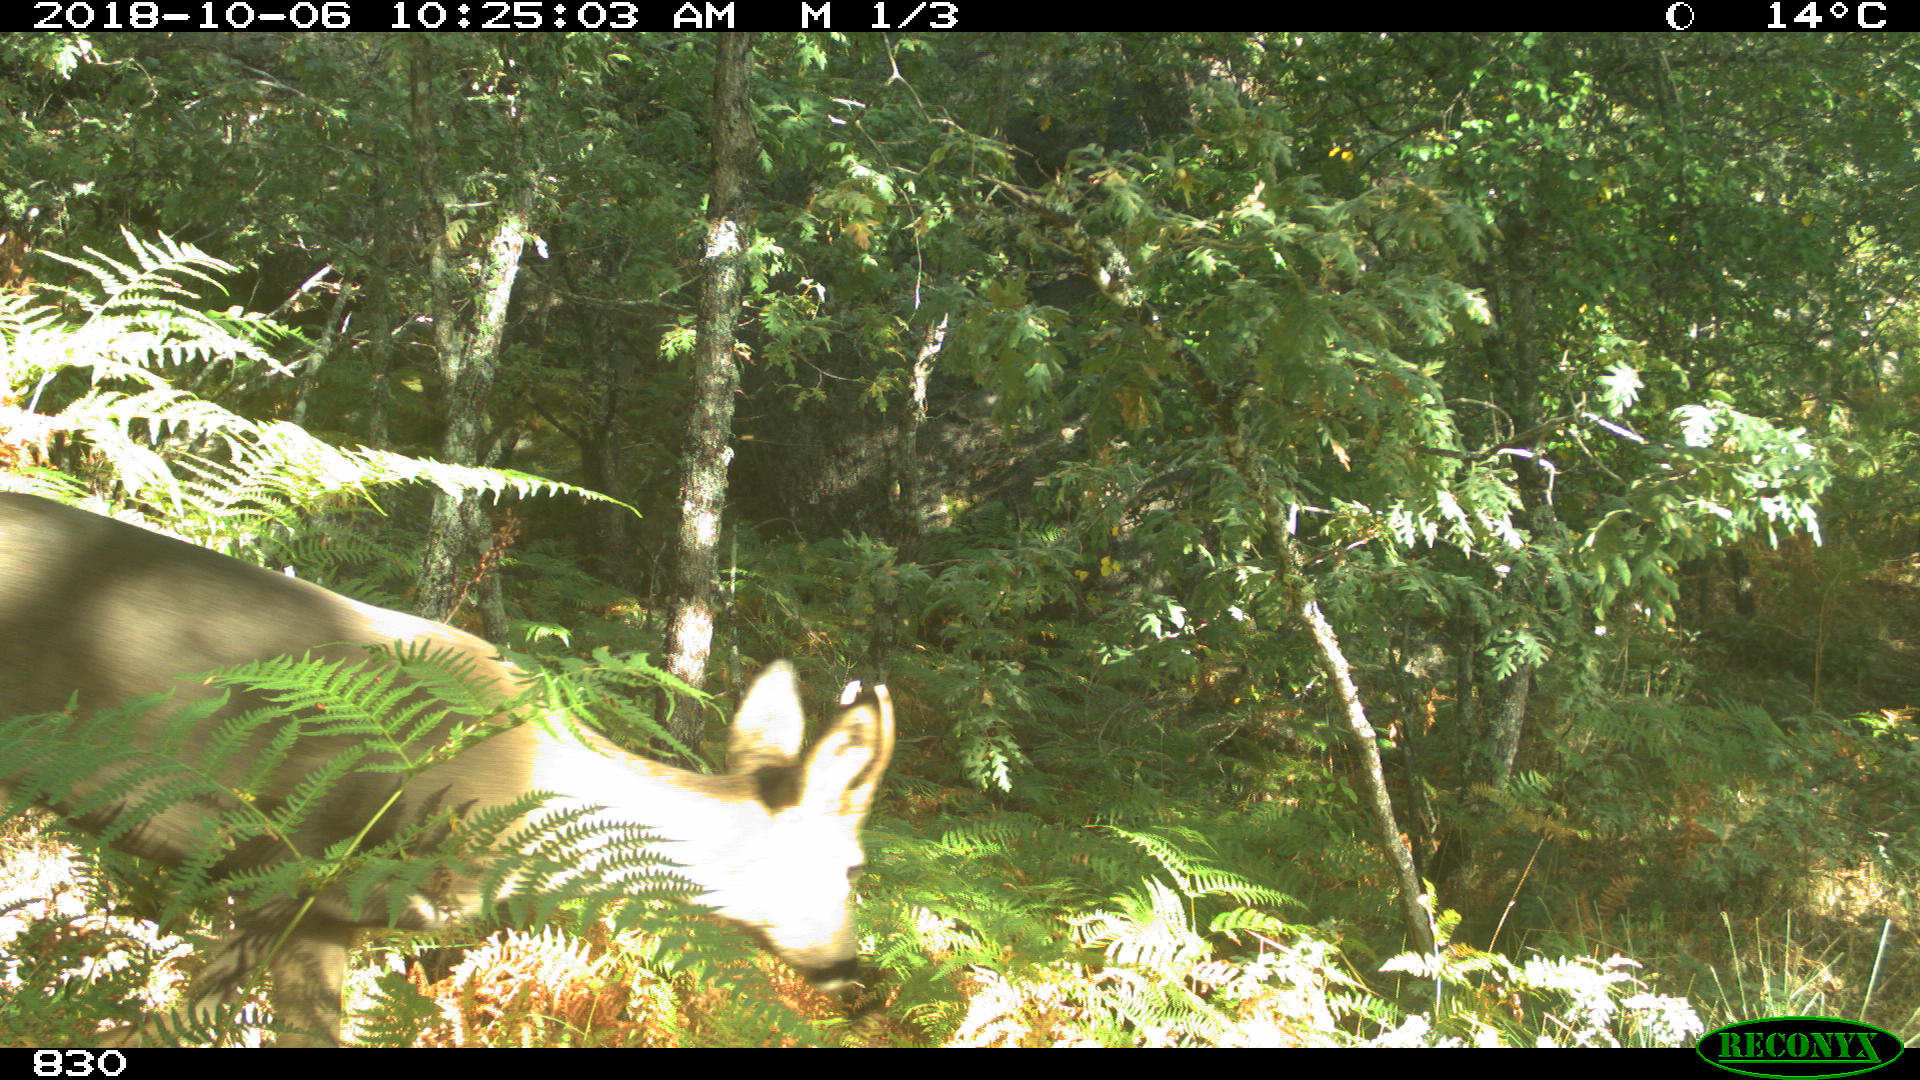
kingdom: Animalia
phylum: Chordata
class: Mammalia
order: Artiodactyla
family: Cervidae
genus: Capreolus
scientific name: Capreolus capreolus
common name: Western roe deer
